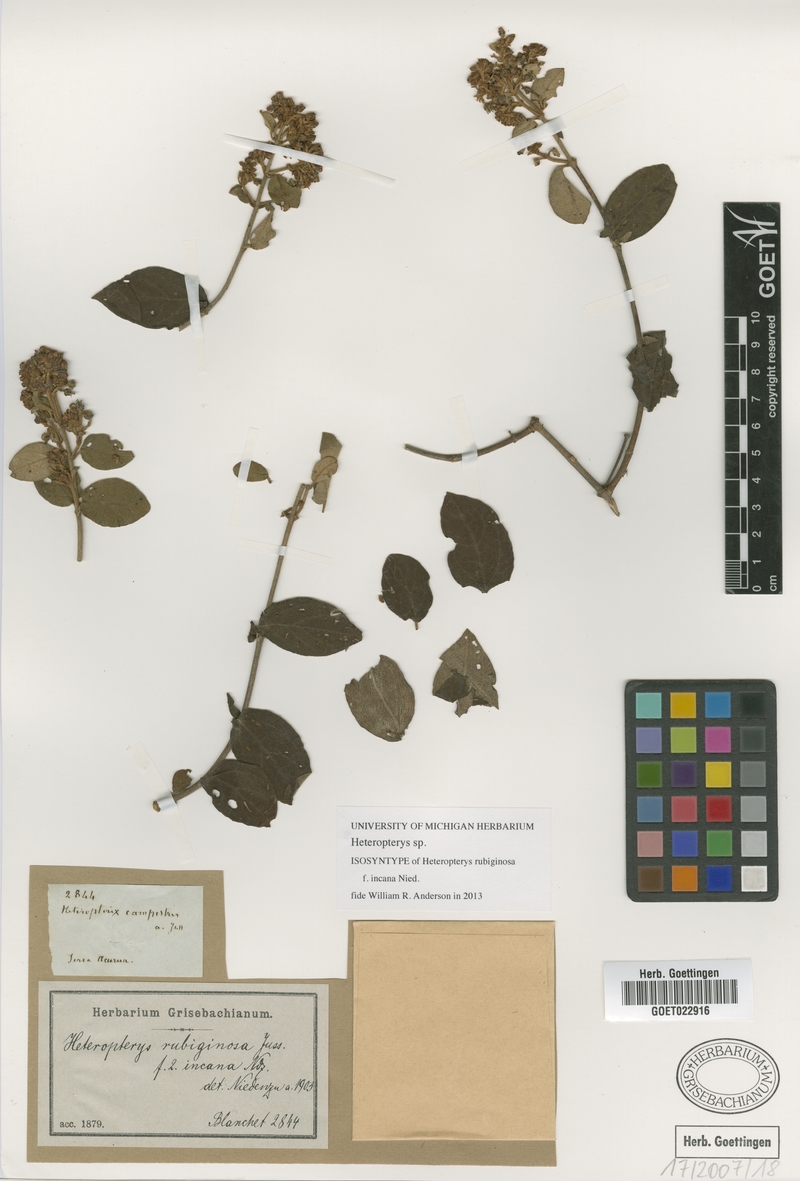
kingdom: Plantae
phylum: Tracheophyta
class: Magnoliopsida
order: Malpighiales
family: Malpighiaceae
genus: Heteropterys
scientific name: Heteropterys
